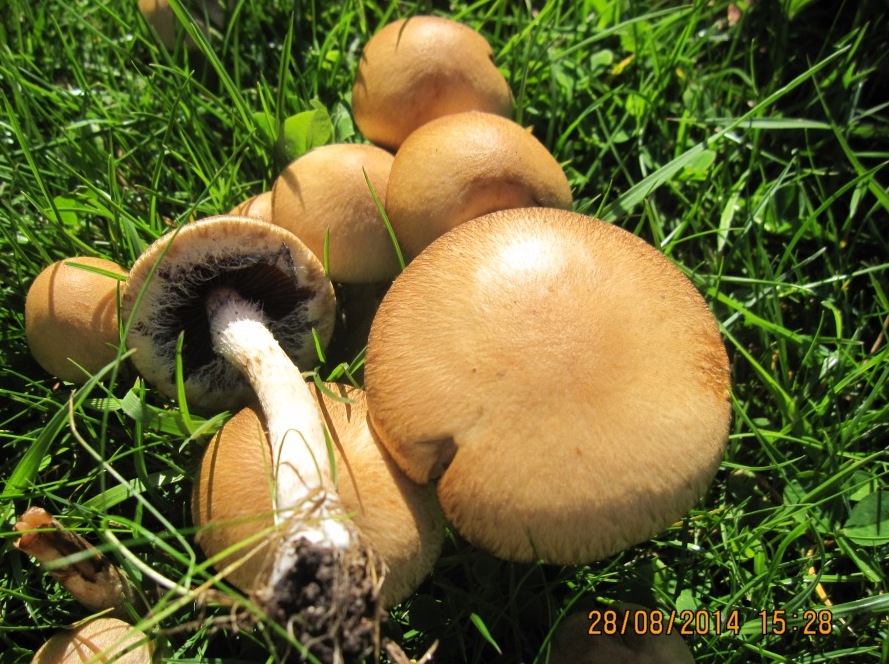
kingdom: Fungi
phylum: Basidiomycota
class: Agaricomycetes
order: Agaricales
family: Psathyrellaceae
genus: Lacrymaria
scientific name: Lacrymaria lacrymabunda
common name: grædende mørkhat
